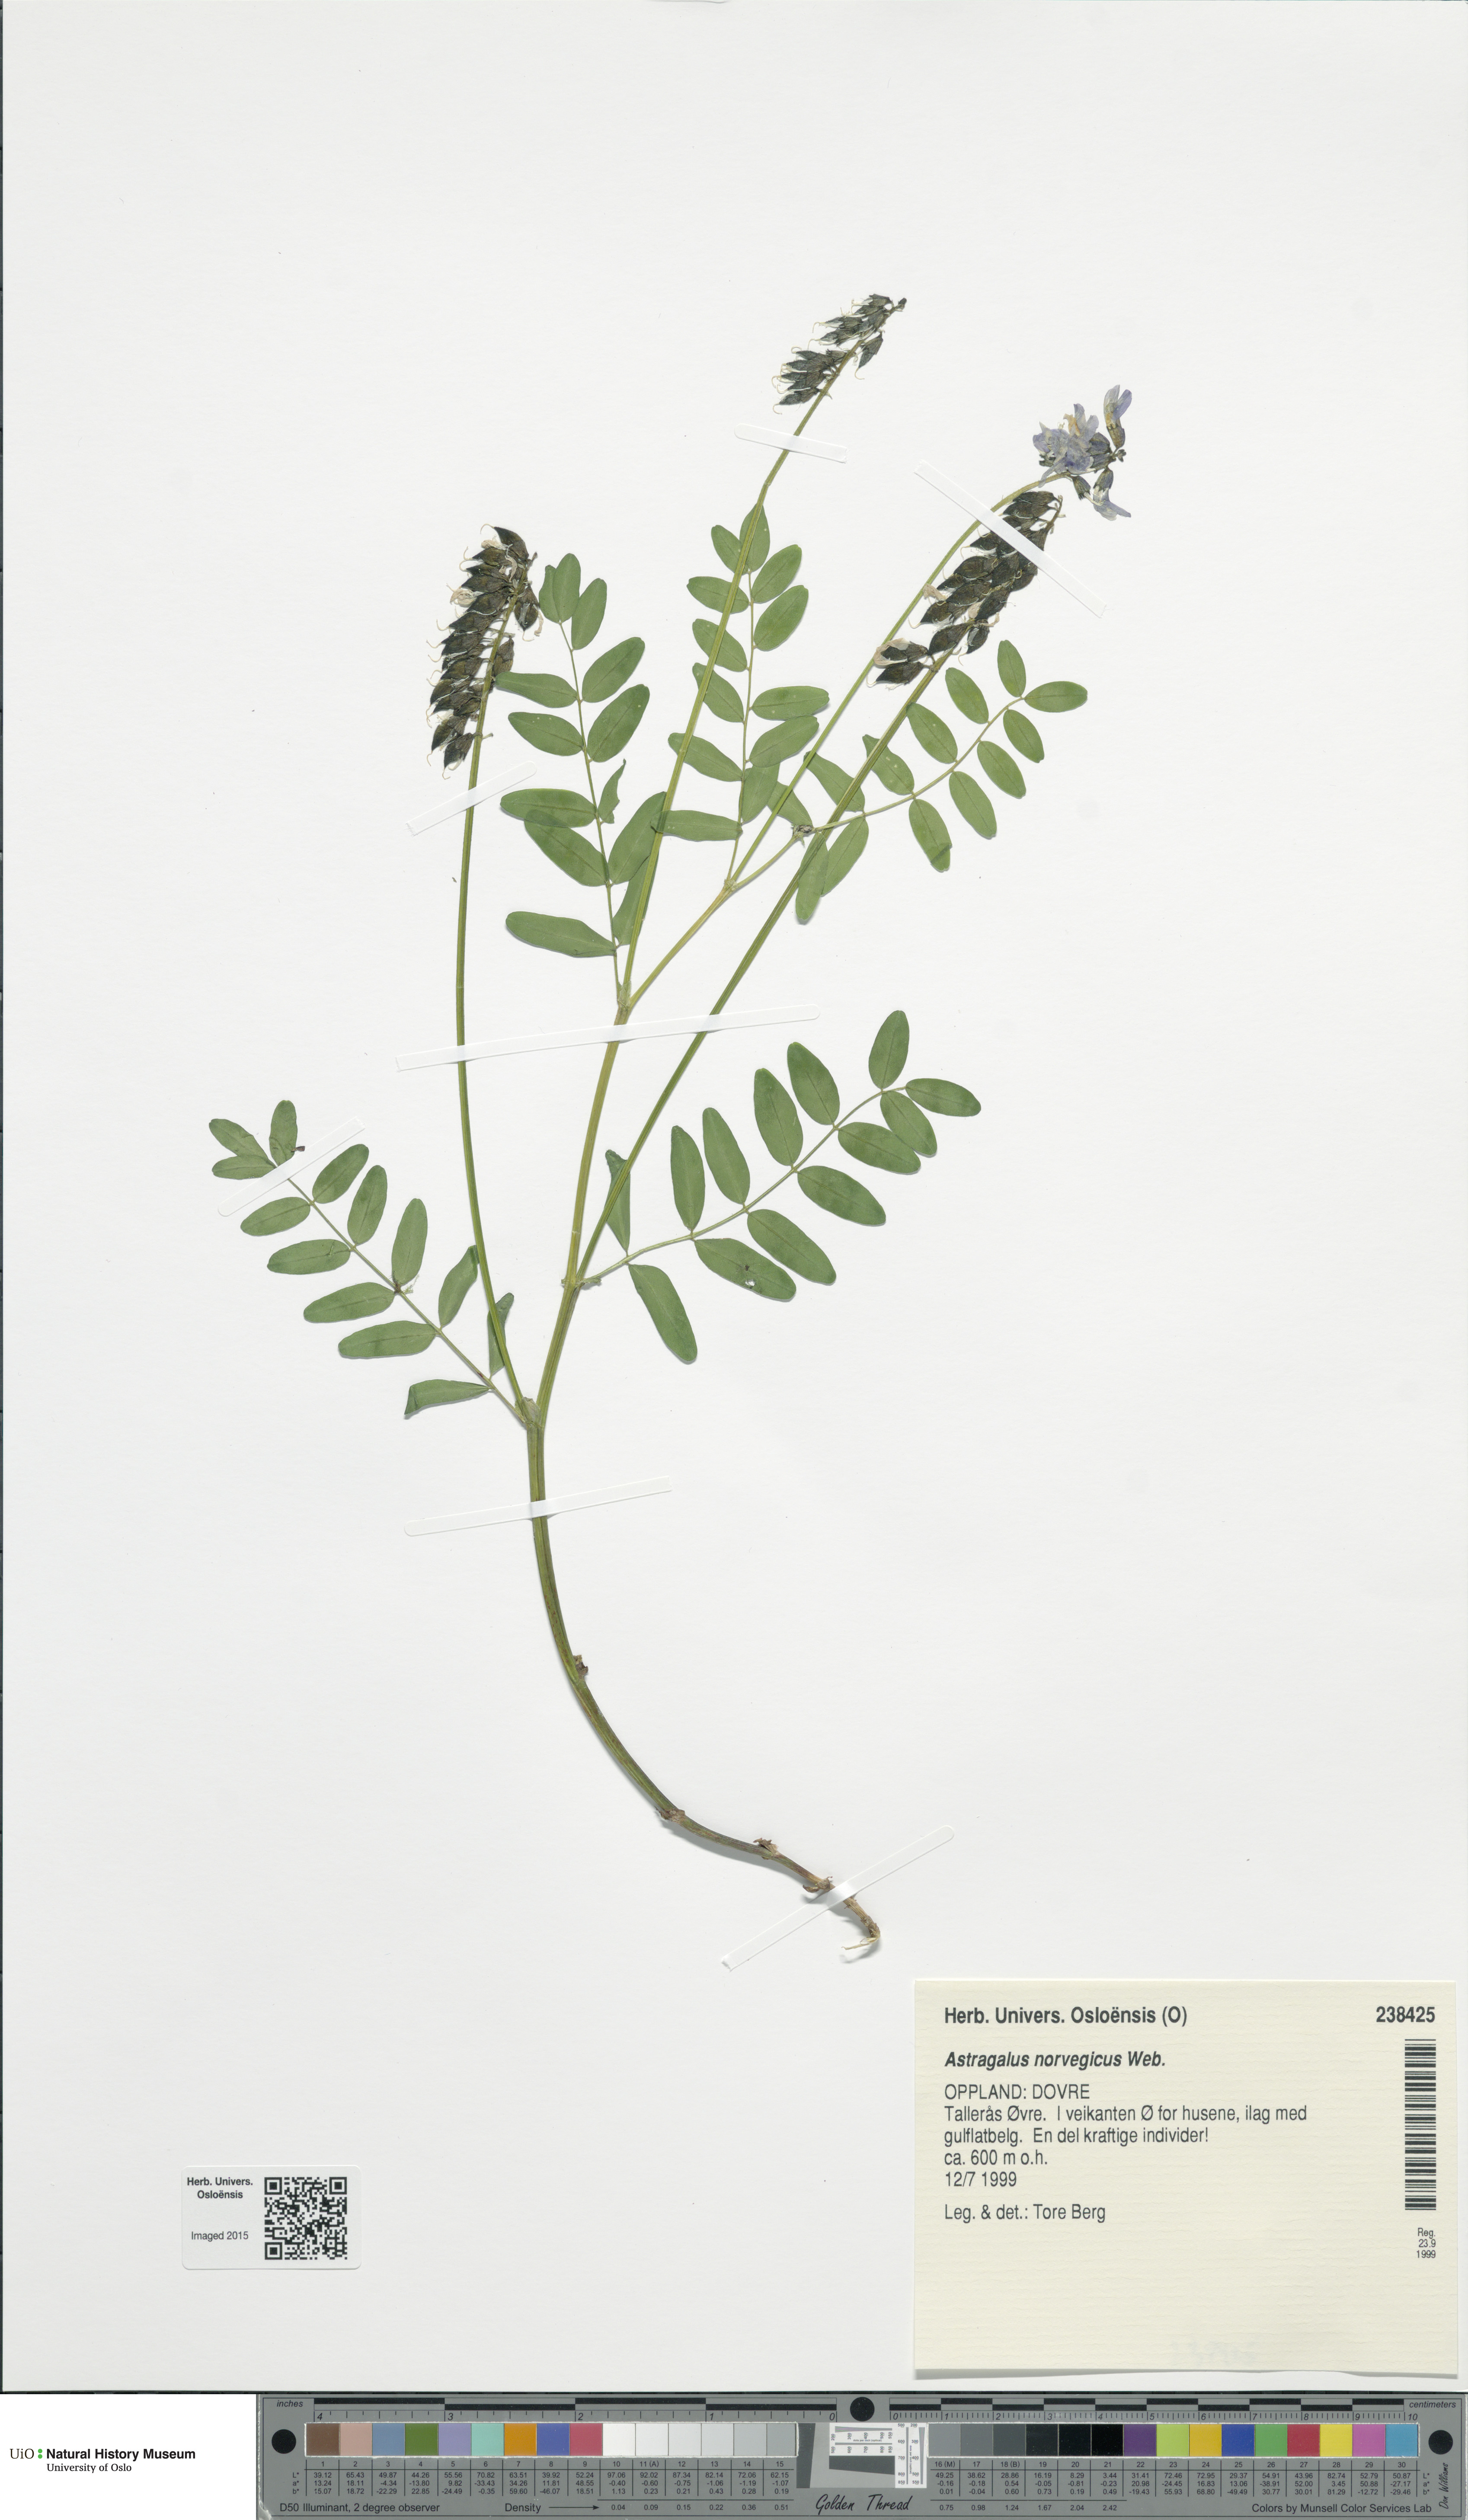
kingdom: Plantae
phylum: Tracheophyta
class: Magnoliopsida
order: Fabales
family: Fabaceae
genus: Astragalus
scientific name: Astragalus norvegicus
